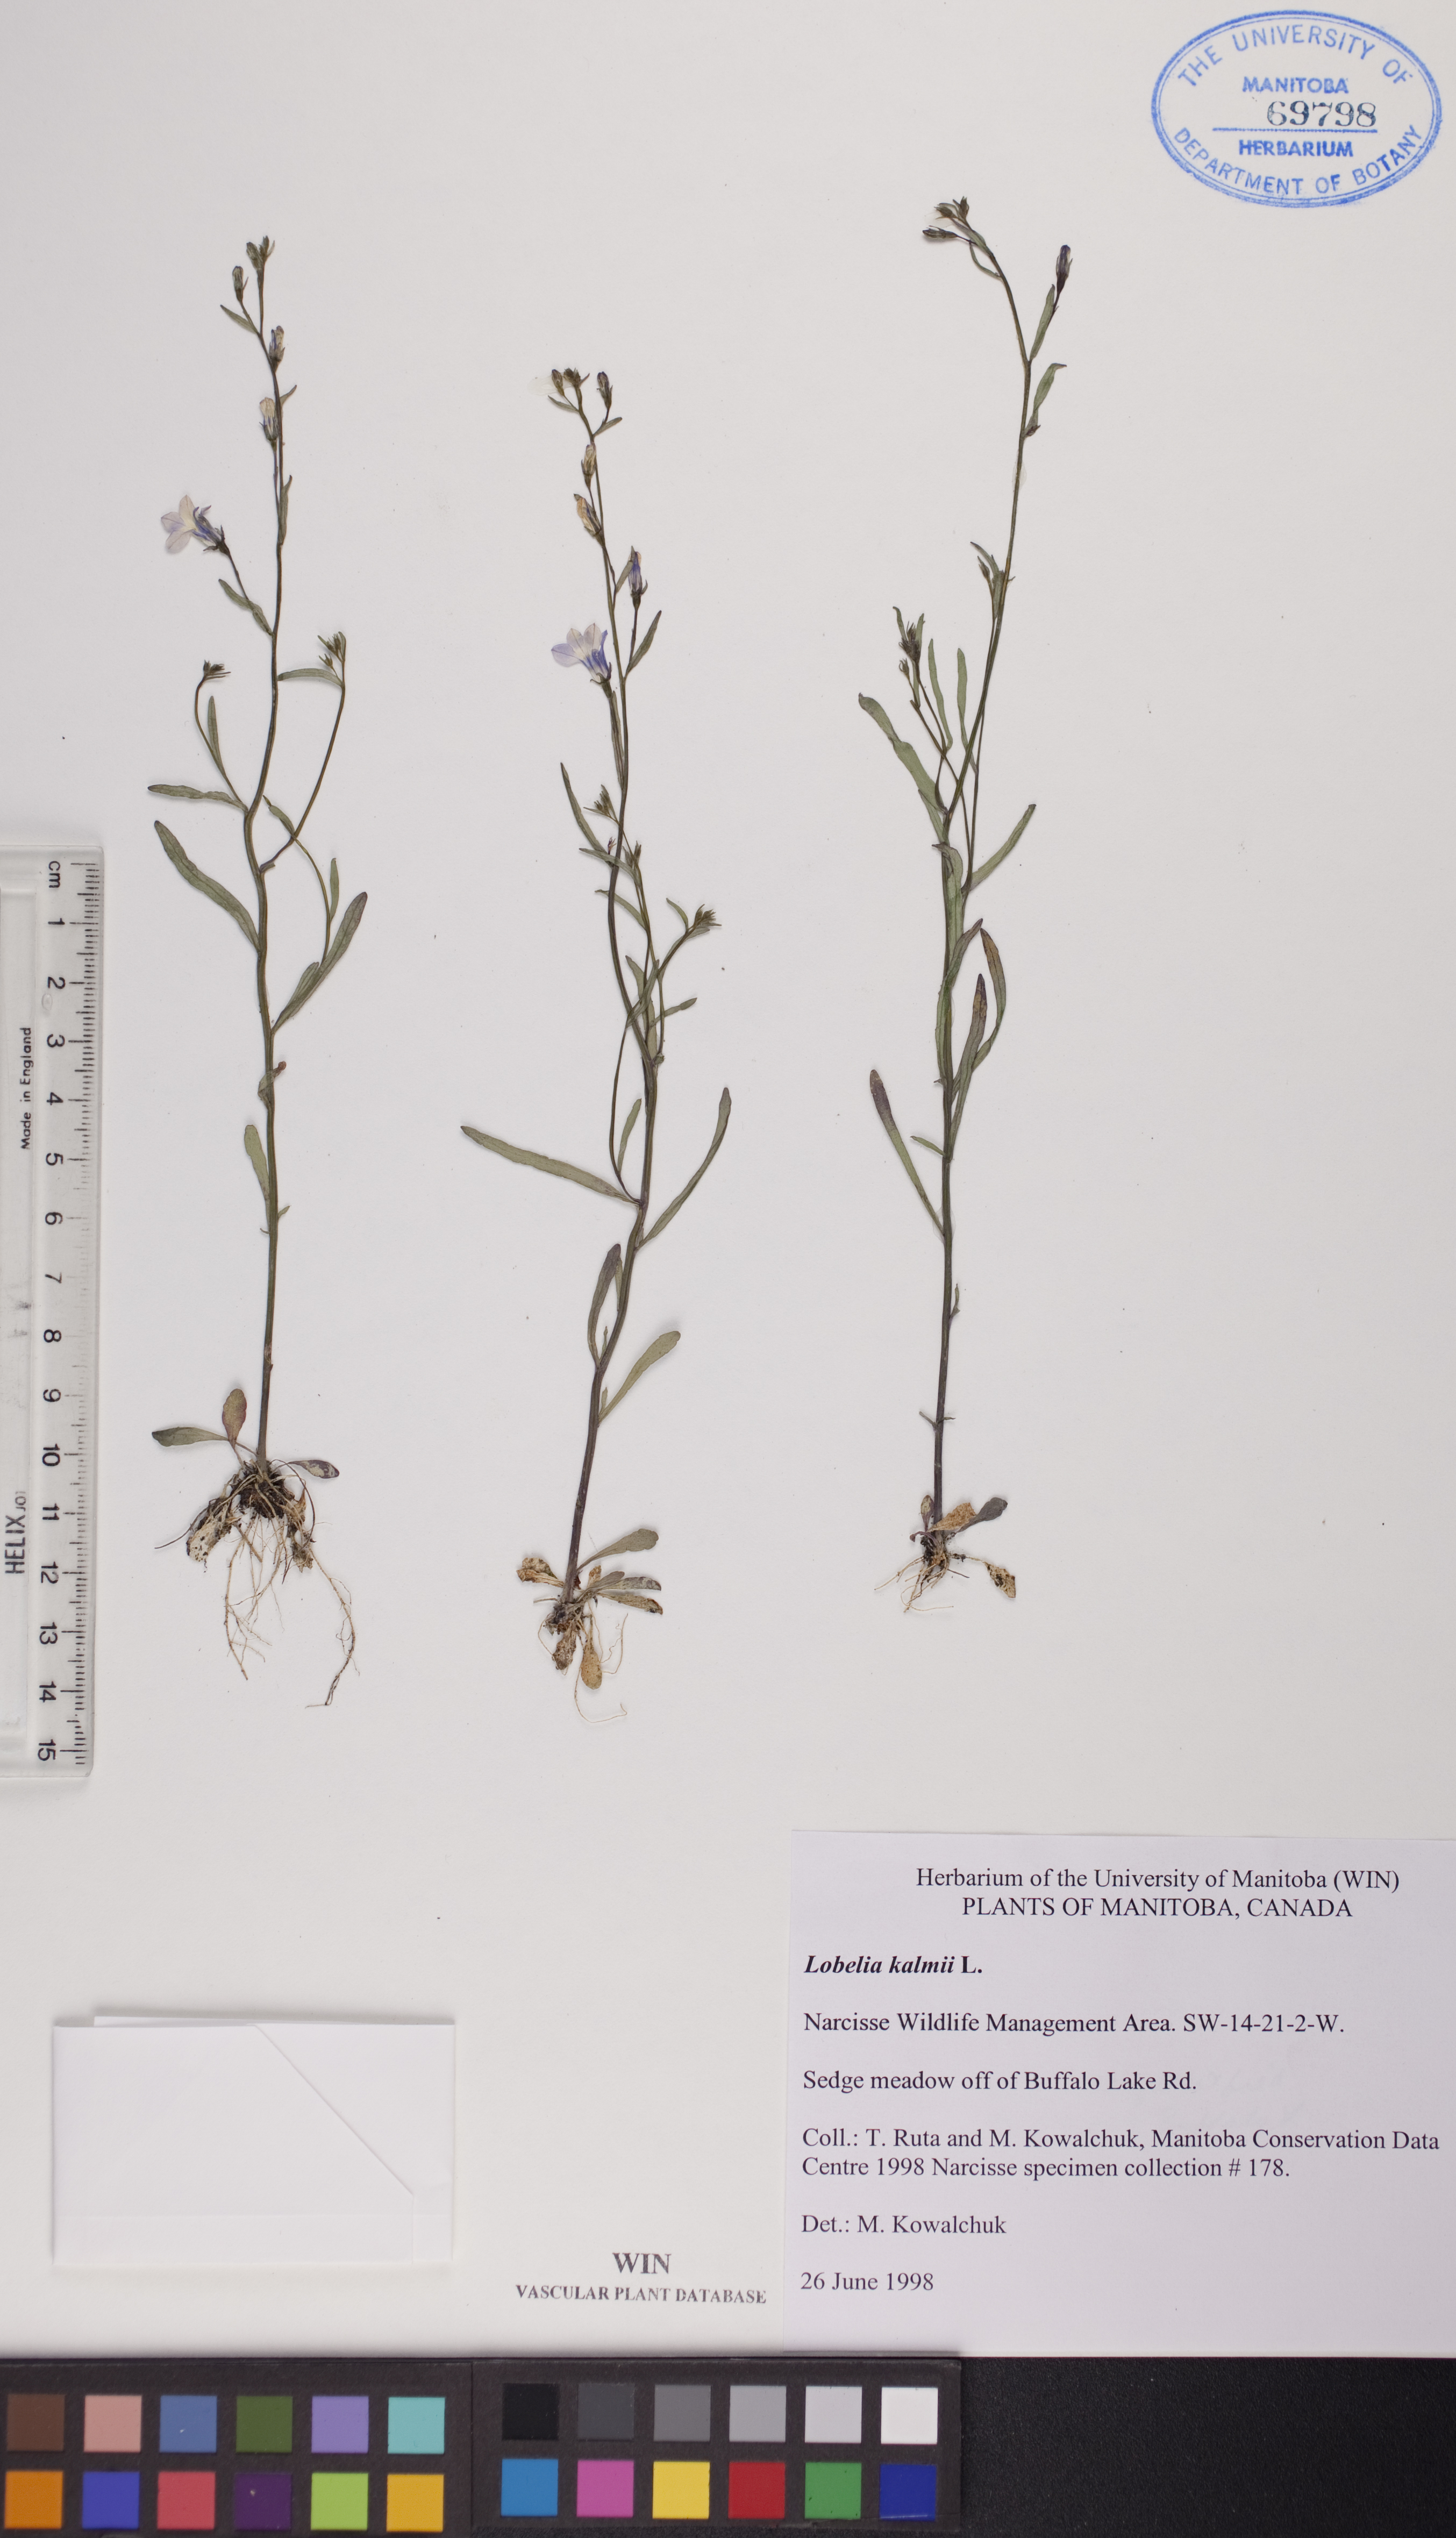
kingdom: Plantae
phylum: Tracheophyta
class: Magnoliopsida
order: Asterales
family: Campanulaceae
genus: Lobelia
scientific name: Lobelia kalmii
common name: Kalm's lobelia
